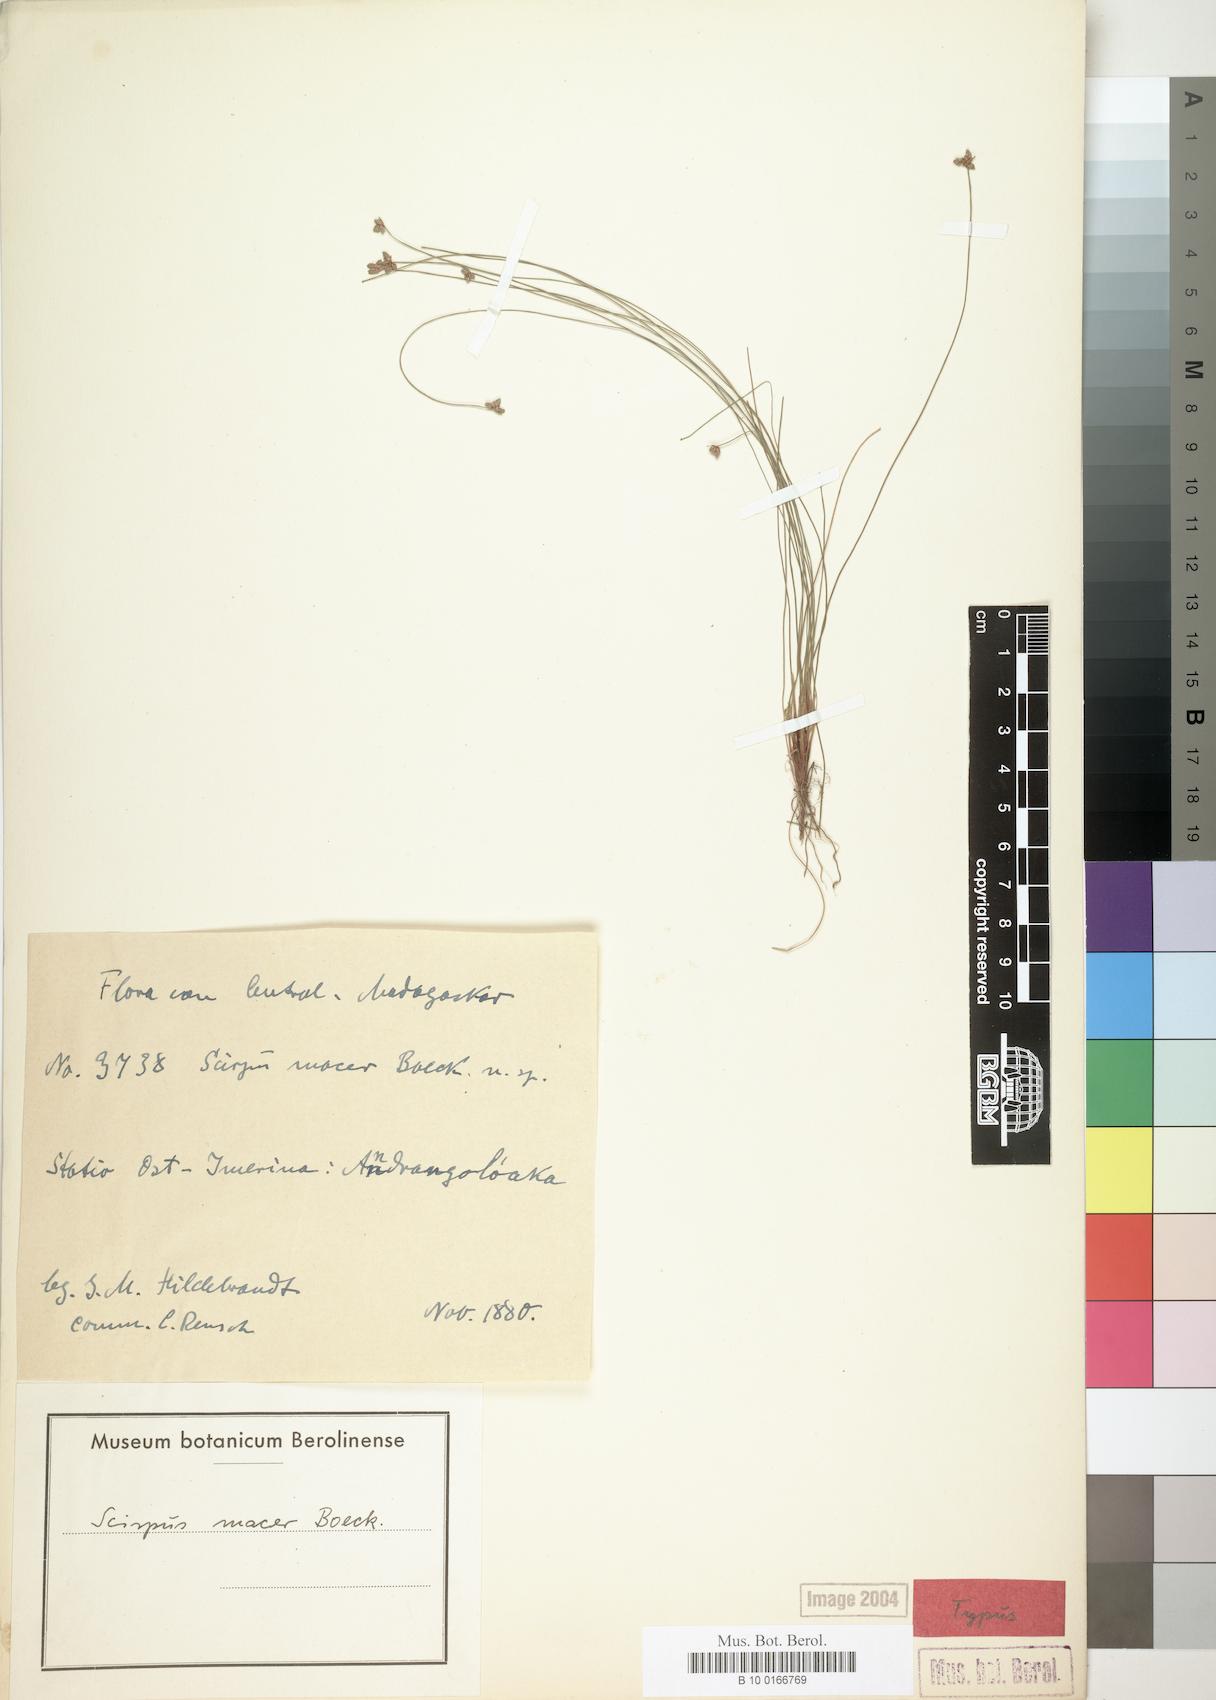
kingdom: Plantae
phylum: Tracheophyta
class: Liliopsida
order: Poales
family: Cyperaceae
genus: Isolepis
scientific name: Isolepis costata
